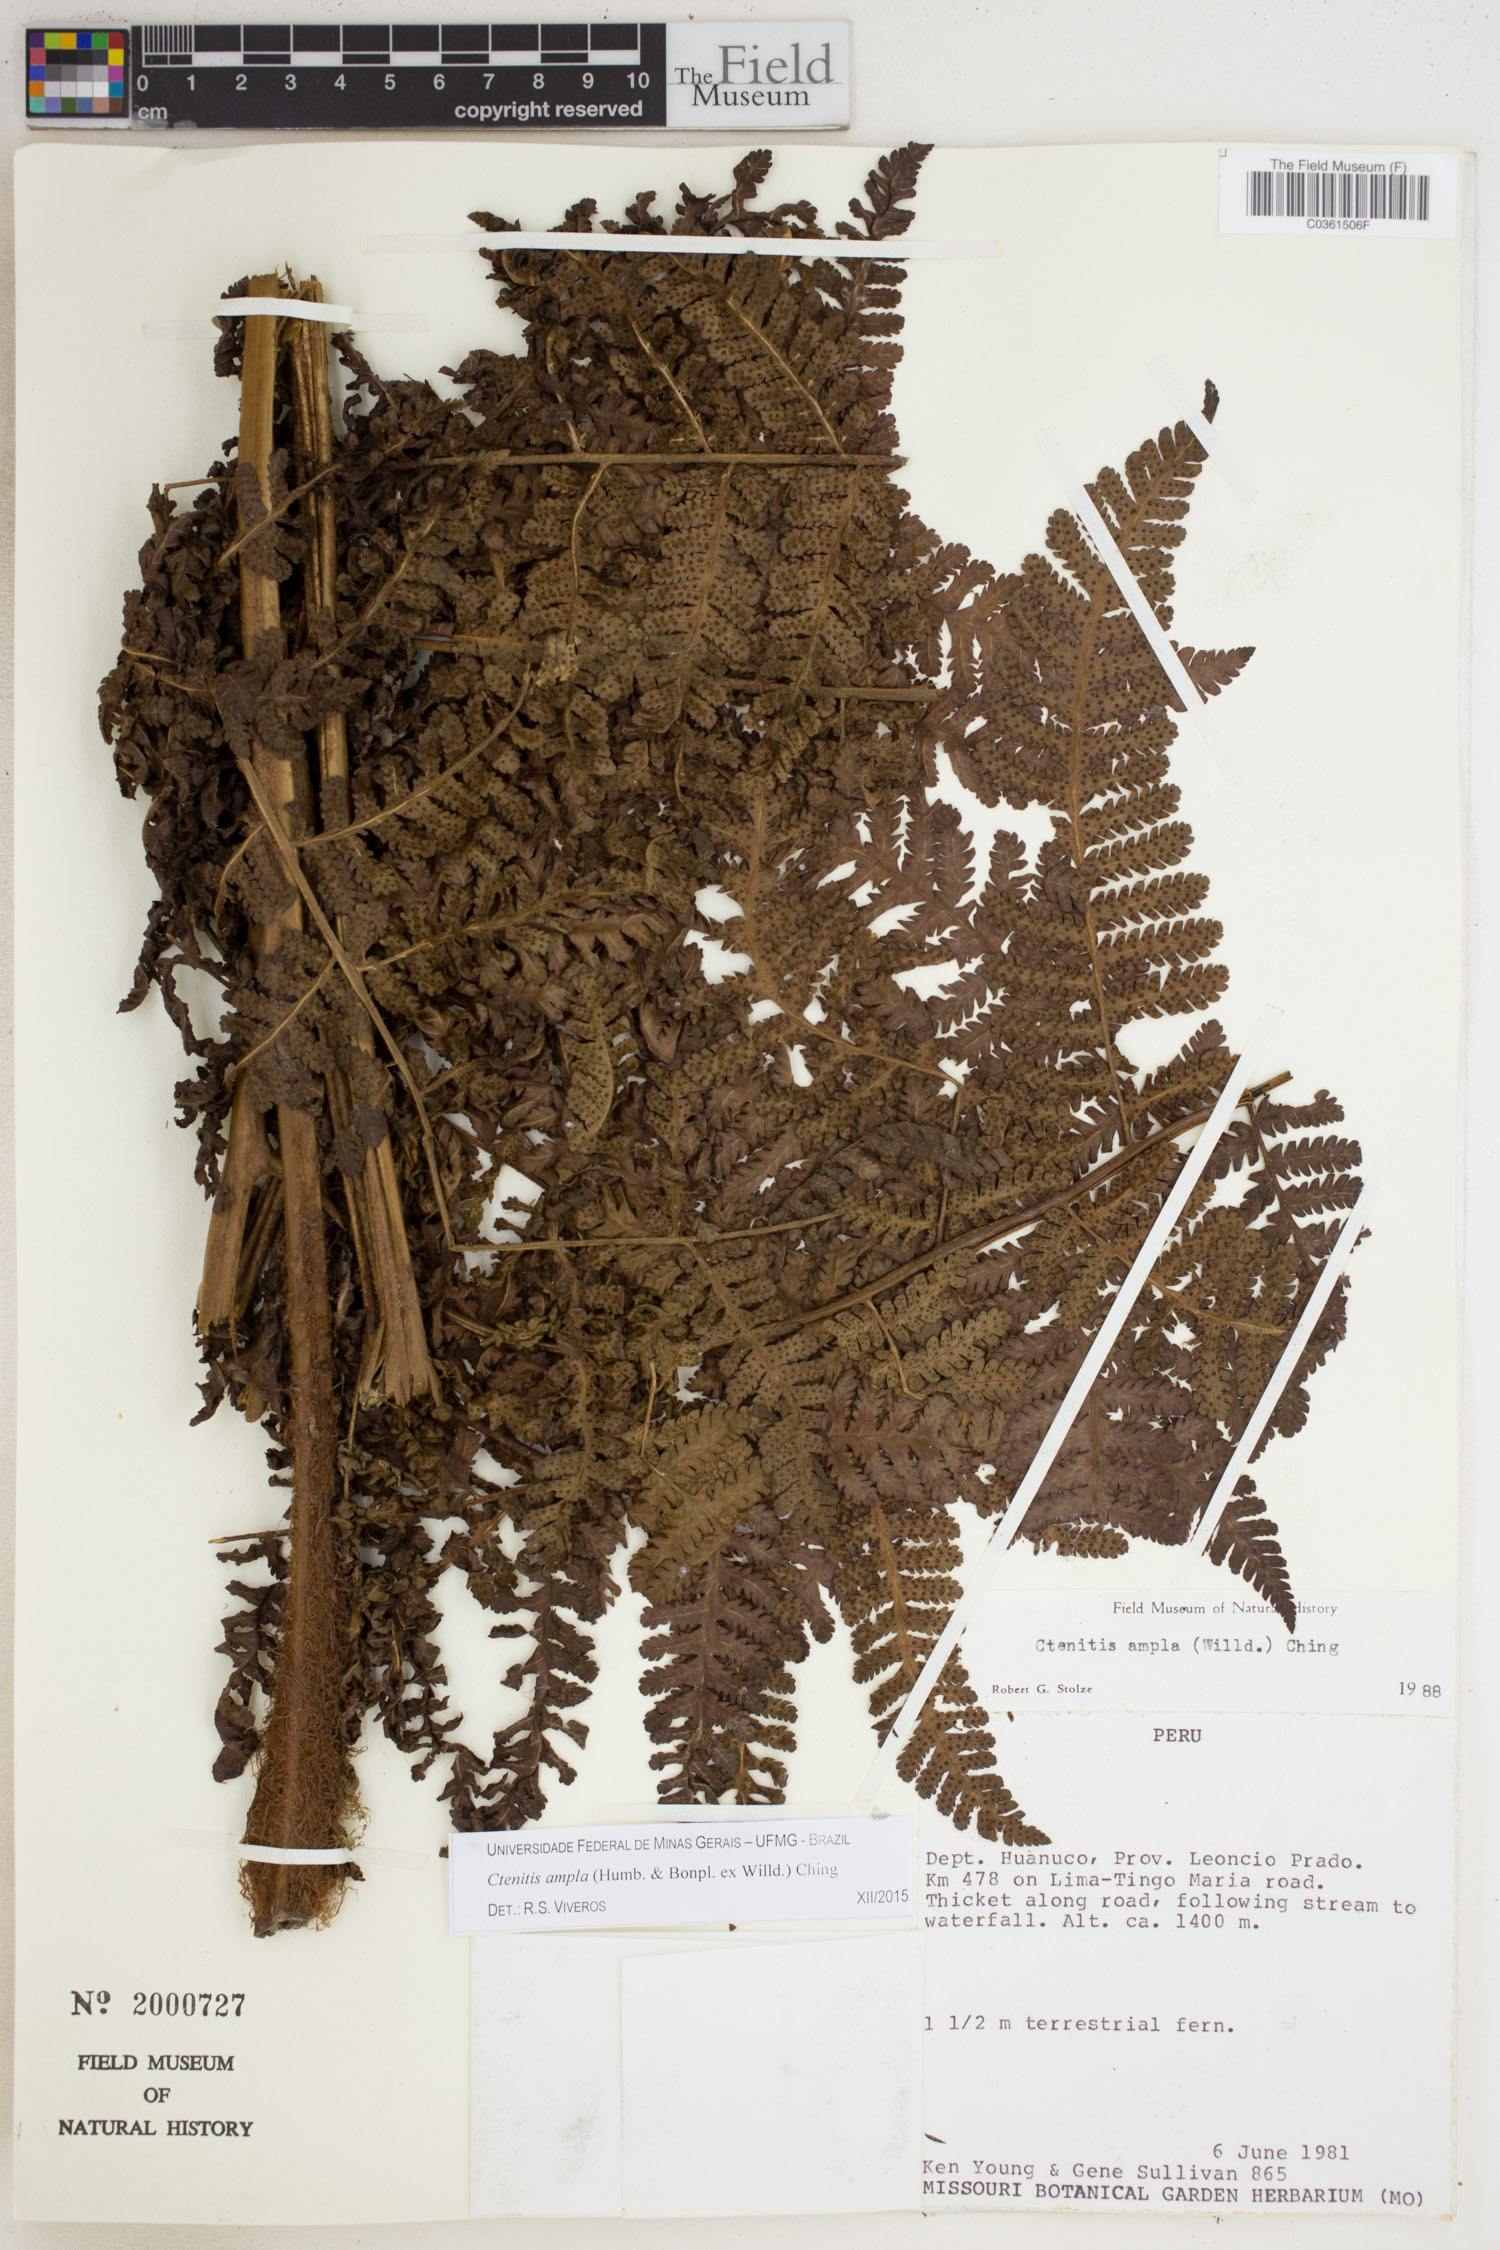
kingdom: Plantae
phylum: Tracheophyta
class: Polypodiopsida
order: Polypodiales
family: Dryopteridaceae
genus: Ctenitis
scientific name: Ctenitis sloanei
